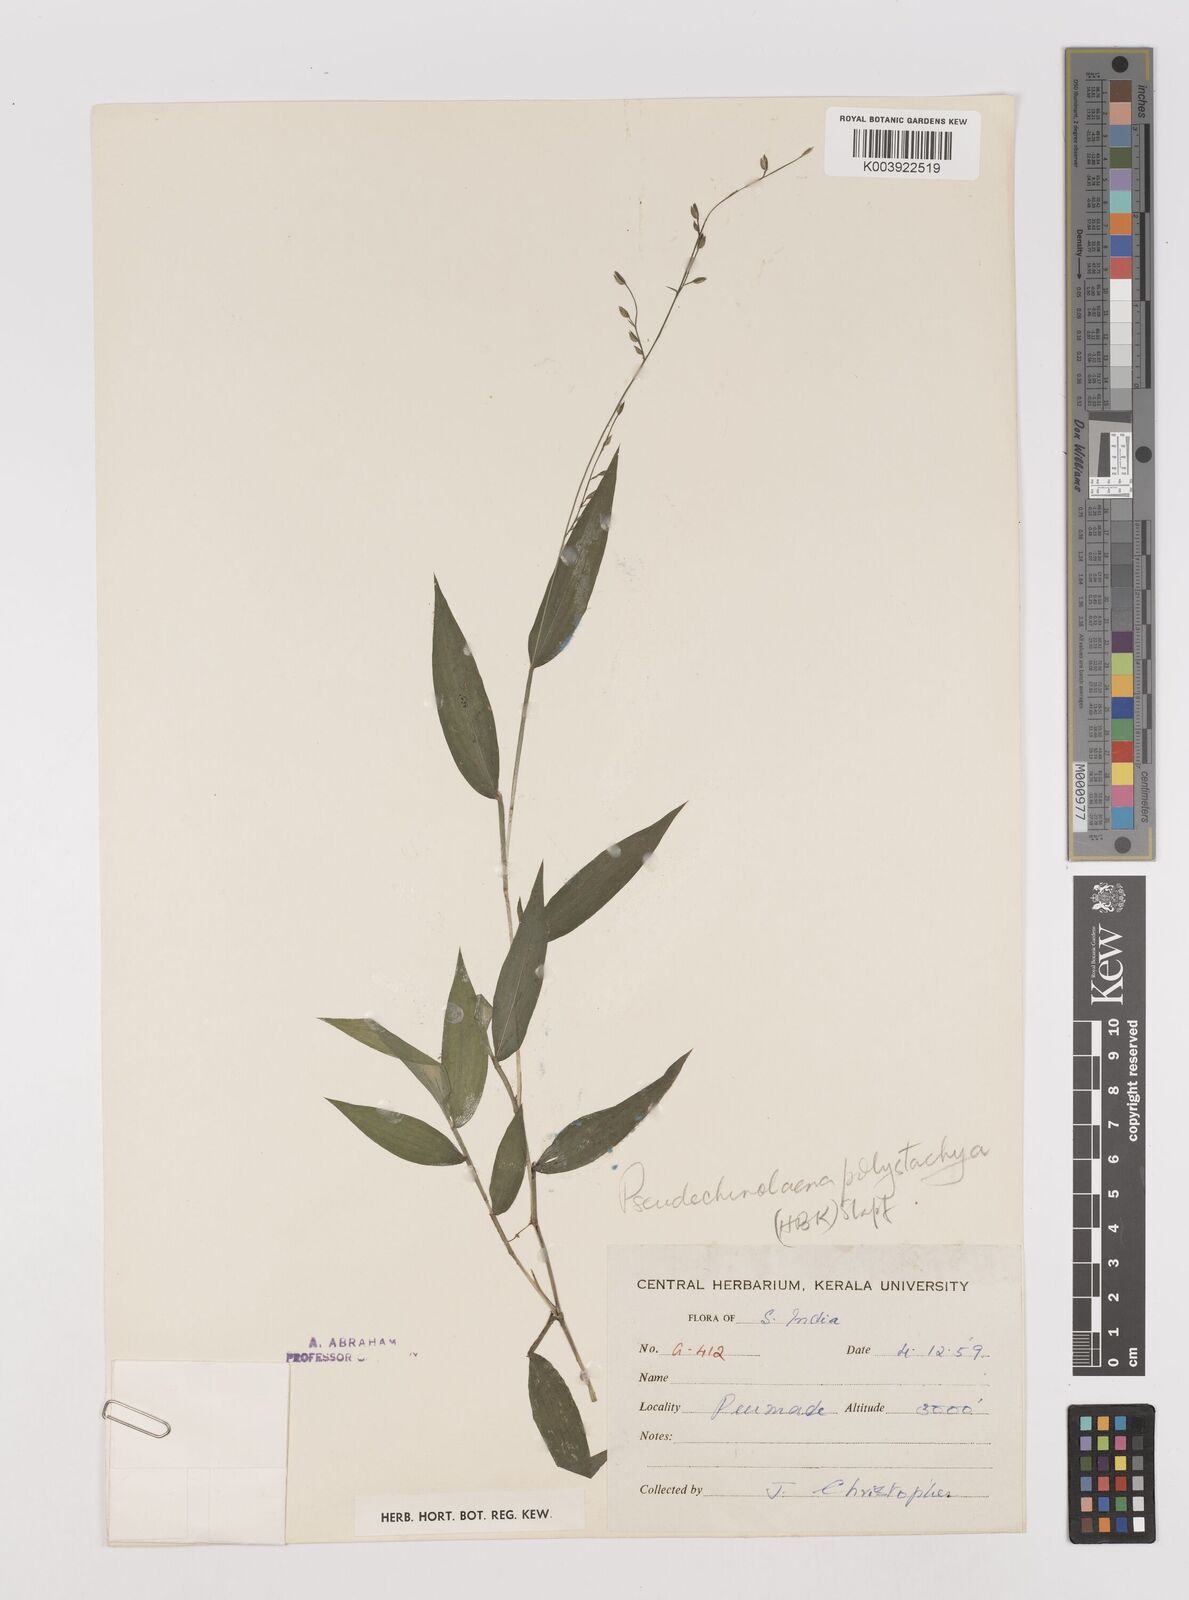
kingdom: Plantae
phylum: Tracheophyta
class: Liliopsida
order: Poales
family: Poaceae
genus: Pseudechinolaena
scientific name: Pseudechinolaena polystachya
